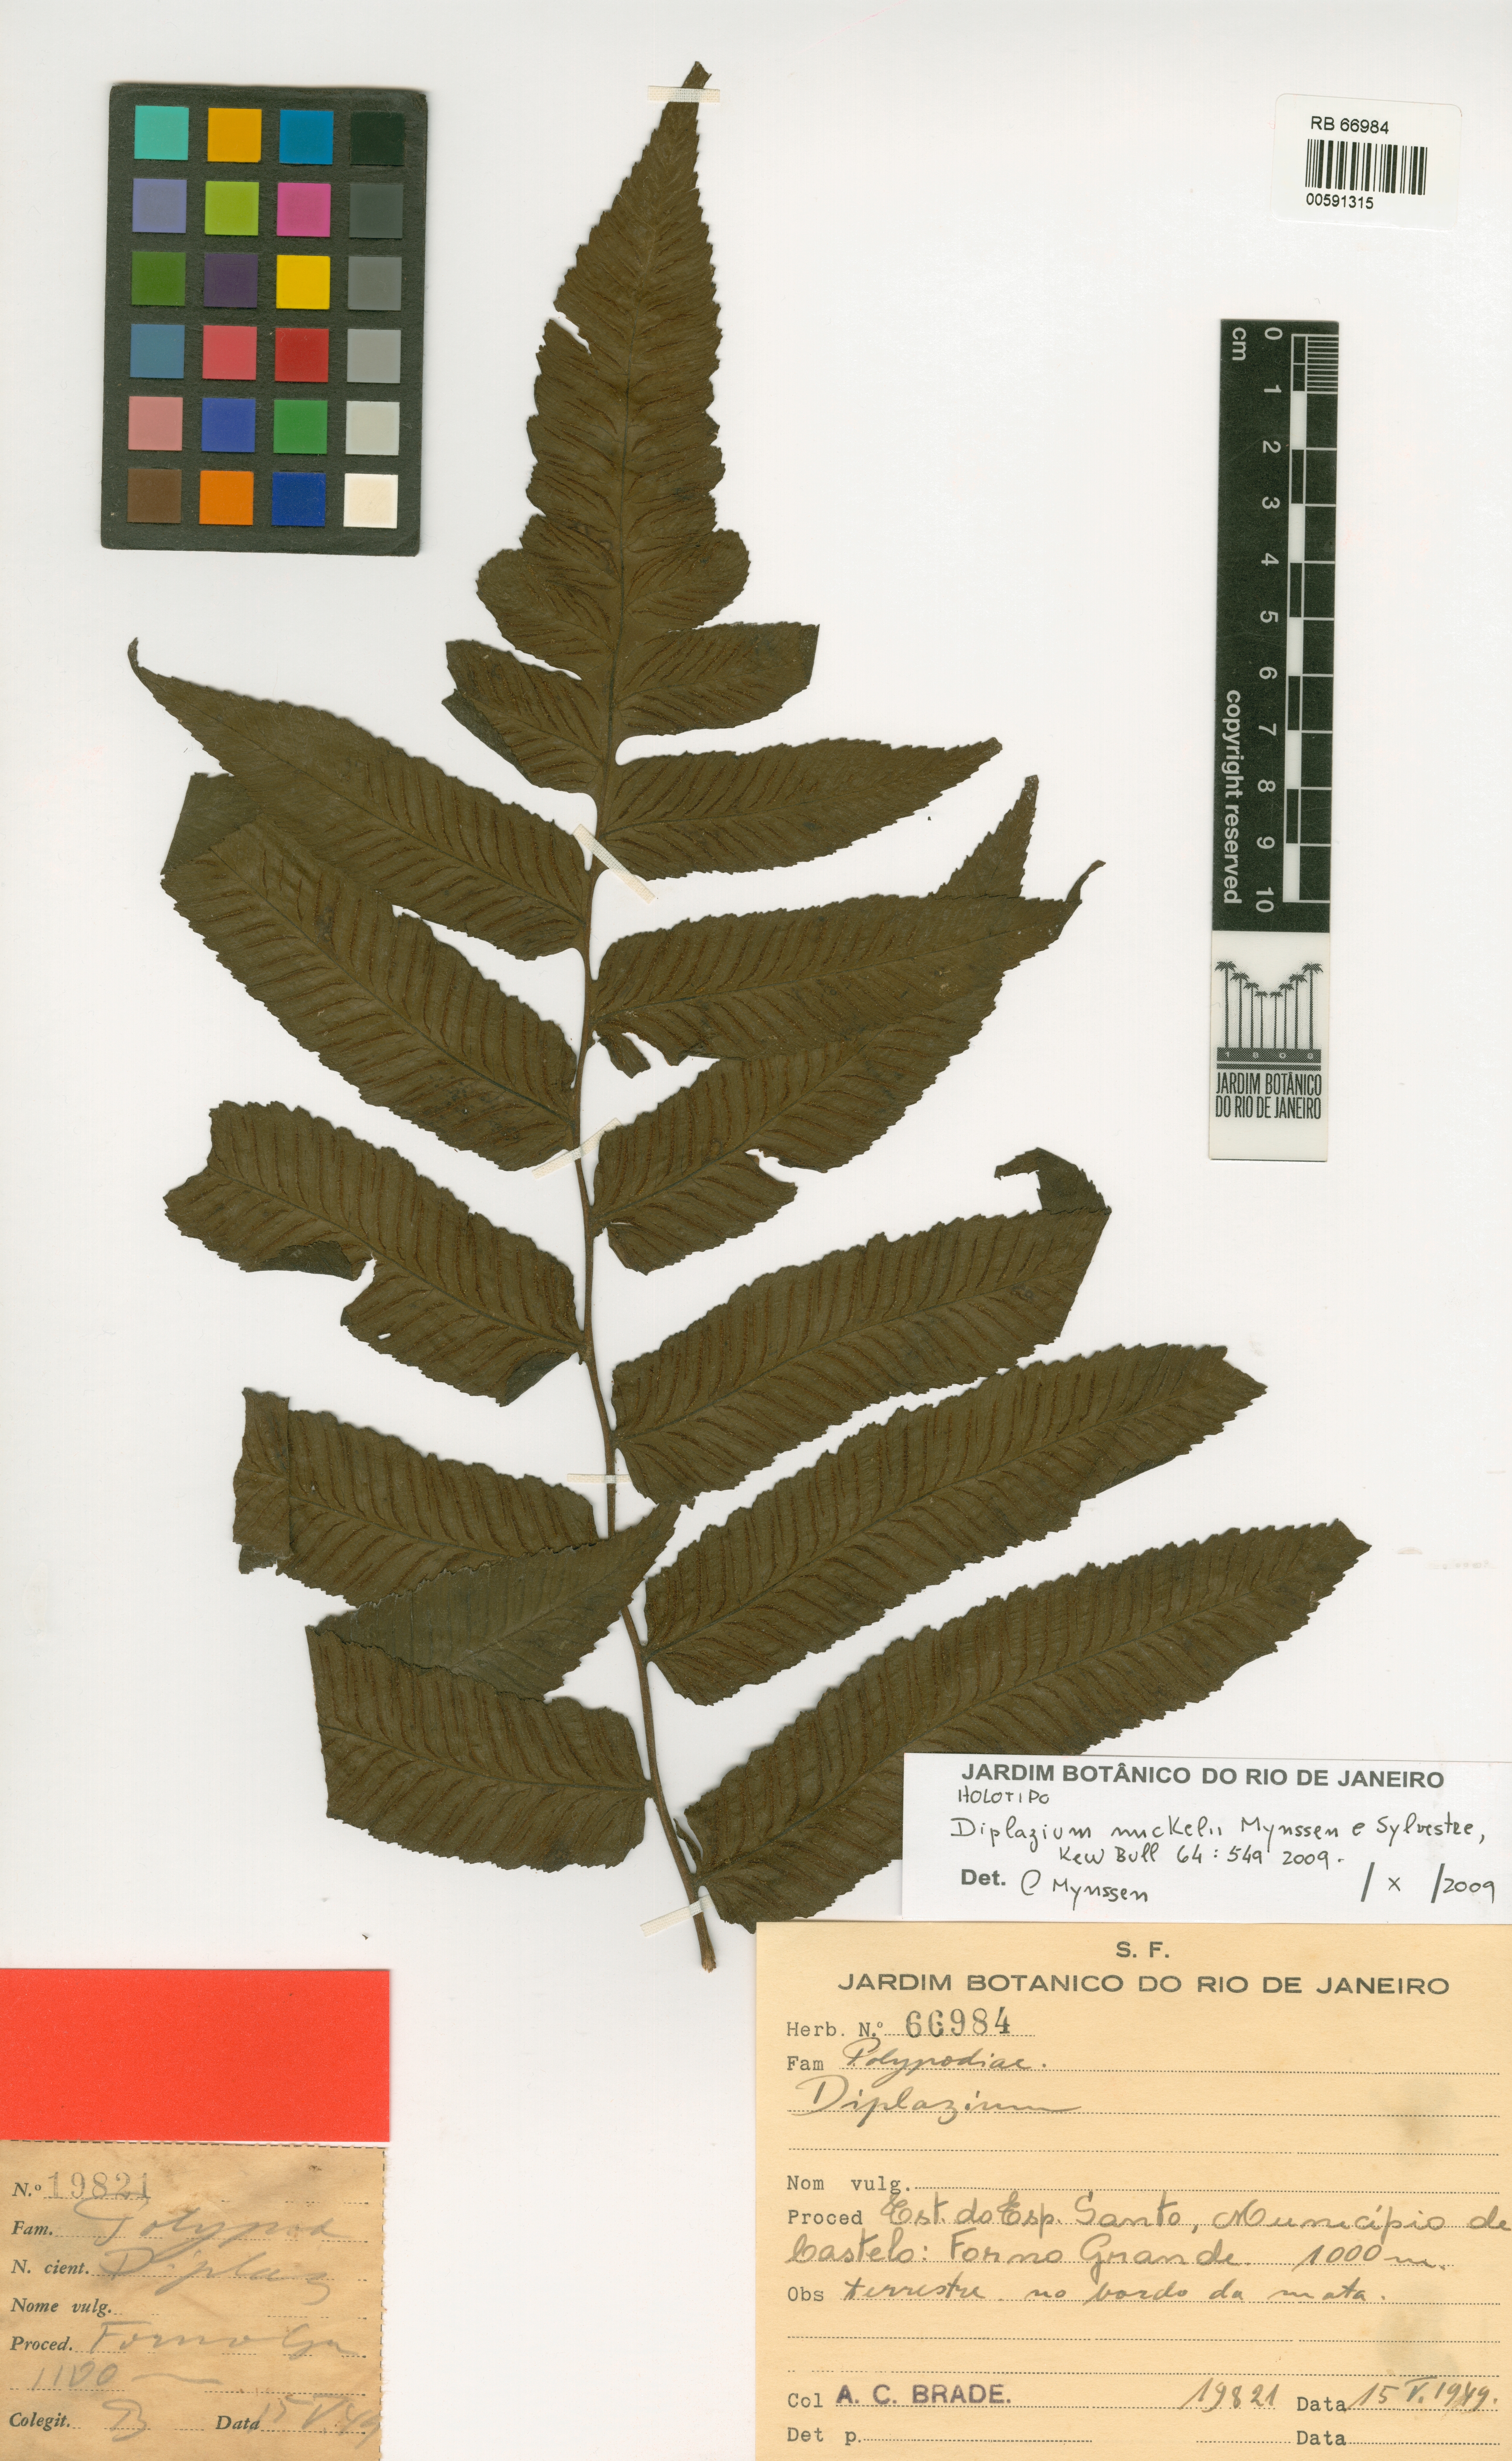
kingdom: Plantae
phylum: Tracheophyta
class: Polypodiopsida
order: Polypodiales
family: Athyriaceae
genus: Diplazium
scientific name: Diplazium mickelii
